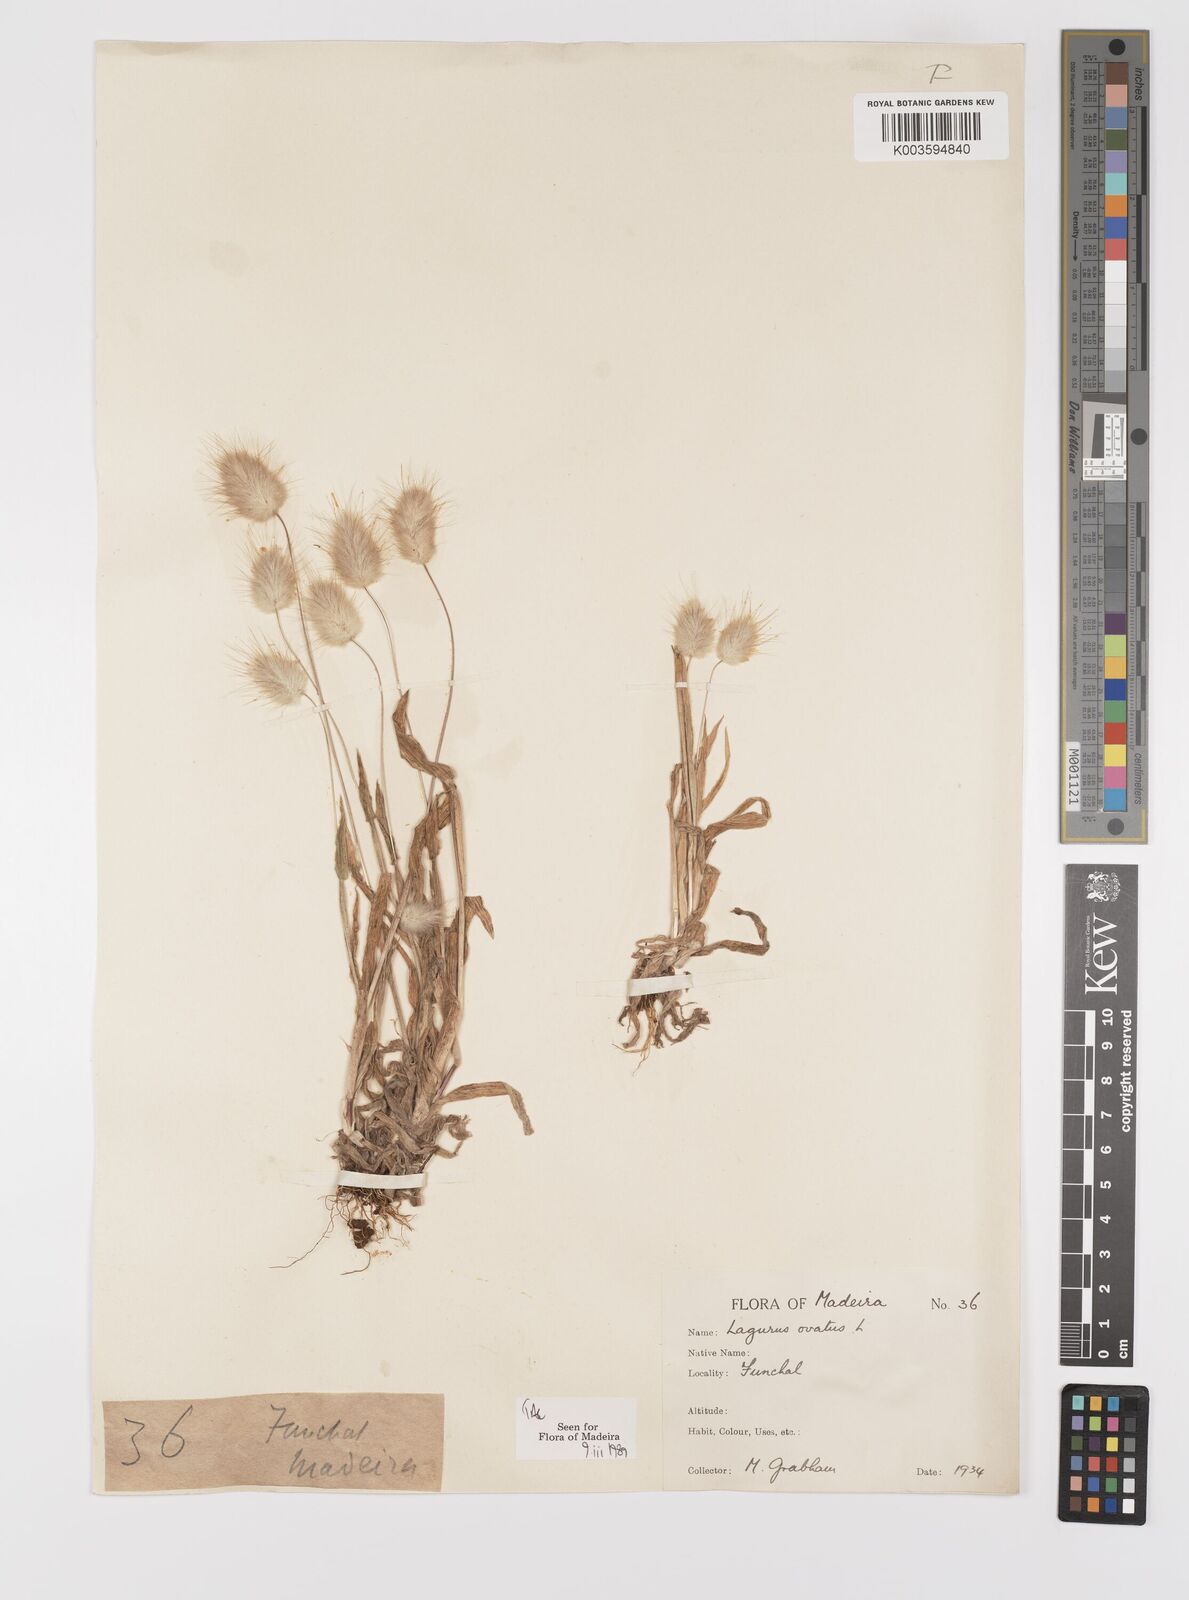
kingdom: Plantae
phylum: Tracheophyta
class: Liliopsida
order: Poales
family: Poaceae
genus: Lagurus
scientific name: Lagurus ovatus
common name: Hare's-tail
